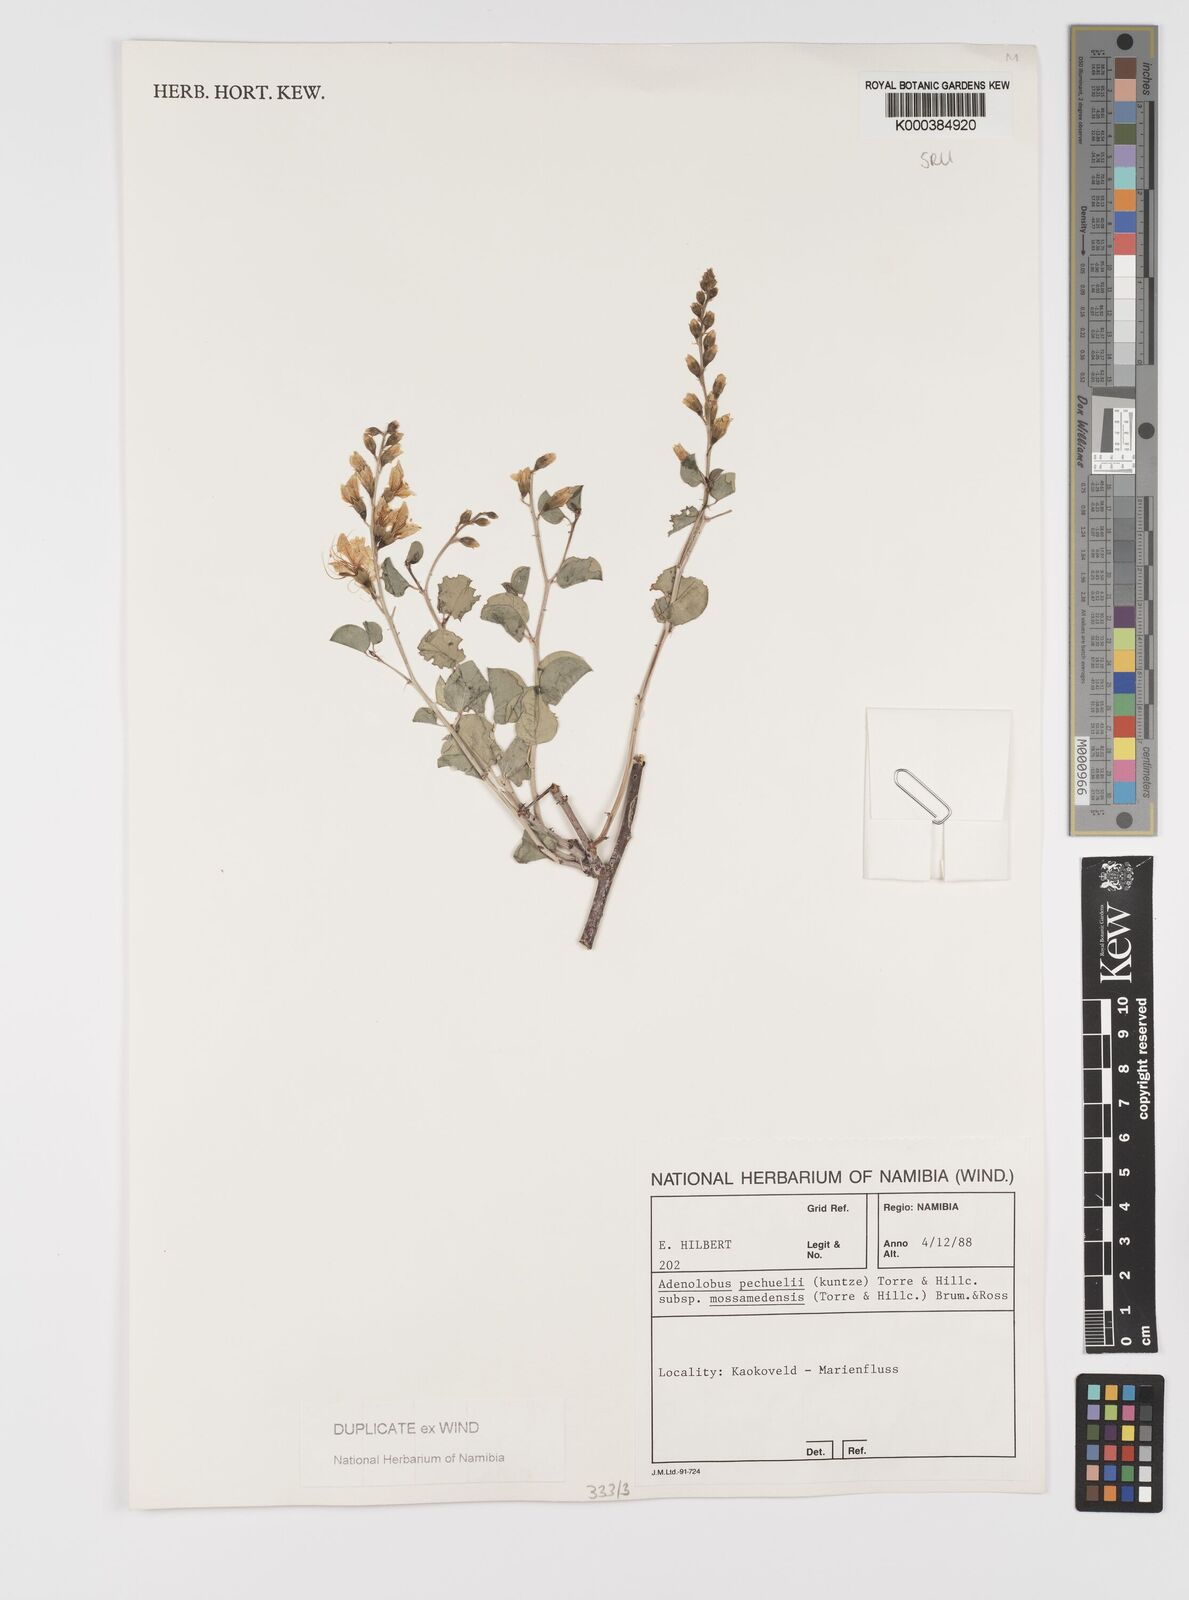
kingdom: Plantae
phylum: Tracheophyta
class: Magnoliopsida
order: Fabales
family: Fabaceae
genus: Adenolobus
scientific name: Adenolobus pechuelii
